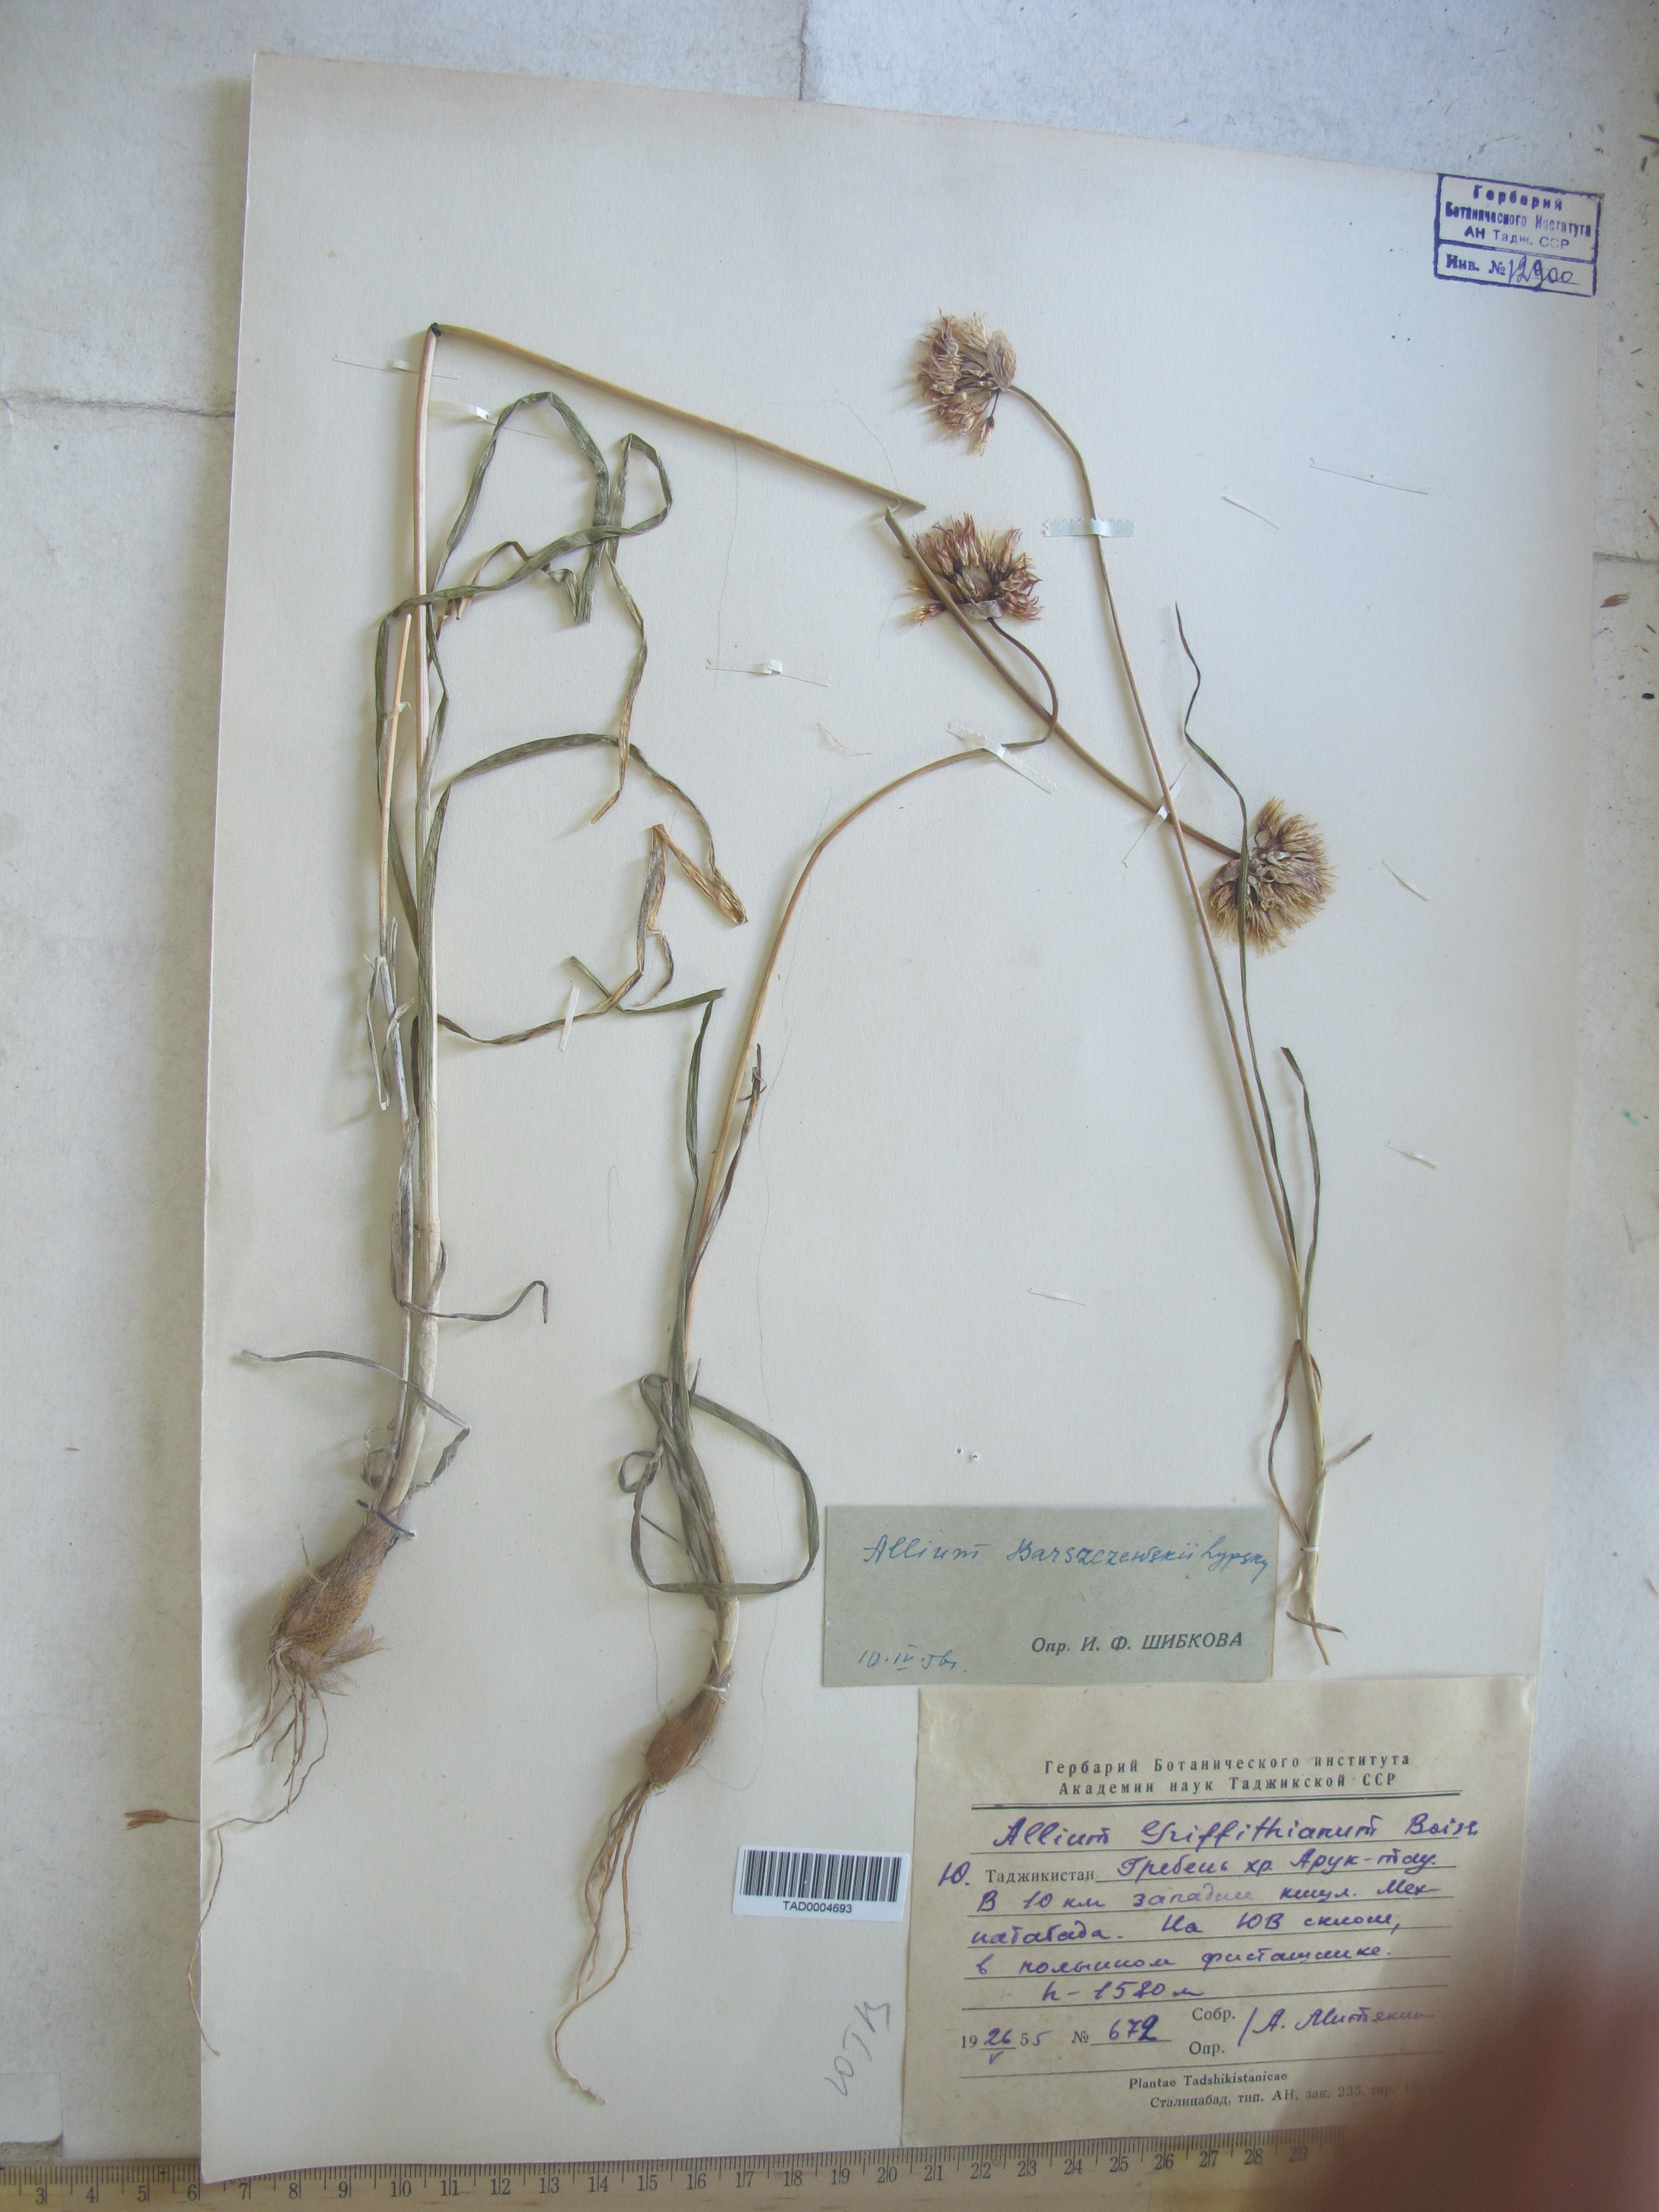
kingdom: Plantae
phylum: Tracheophyta
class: Liliopsida
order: Asparagales
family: Amaryllidaceae
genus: Allium
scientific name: Allium barsczewskii
